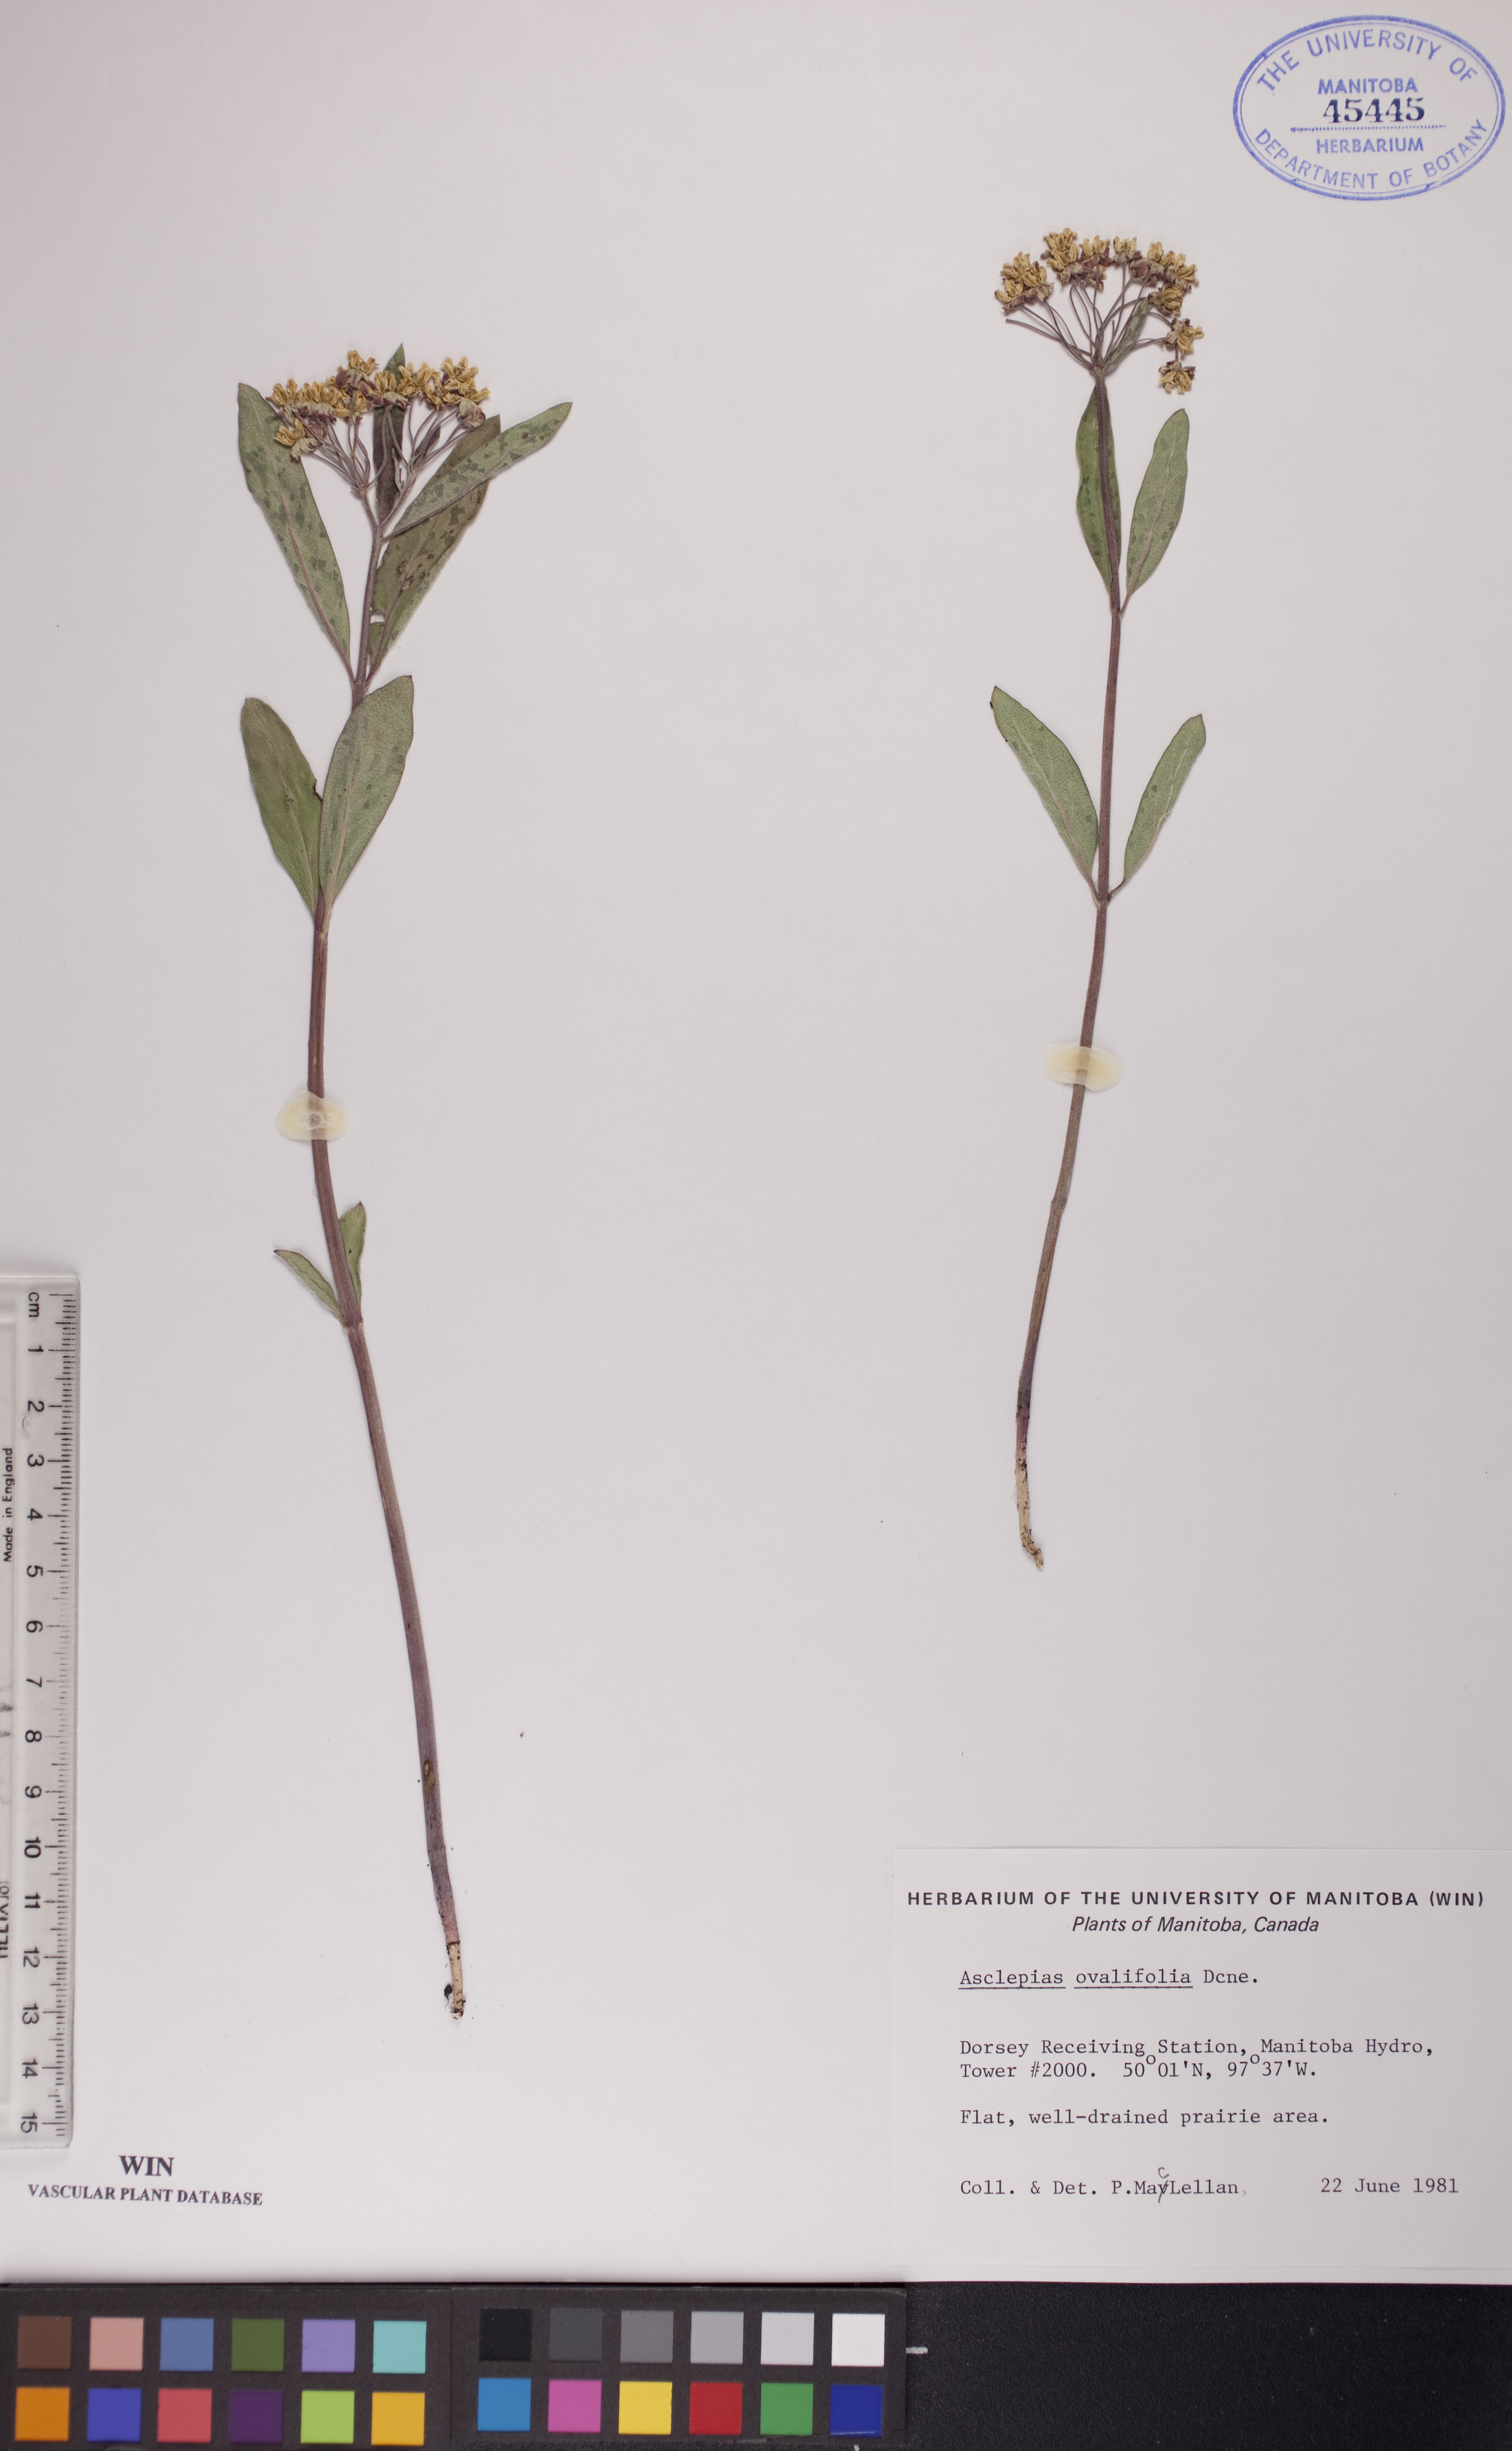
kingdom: Plantae
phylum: Tracheophyta
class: Magnoliopsida
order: Gentianales
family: Apocynaceae
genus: Asclepias
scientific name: Asclepias ovalifolia
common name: Dwarf milkweed
